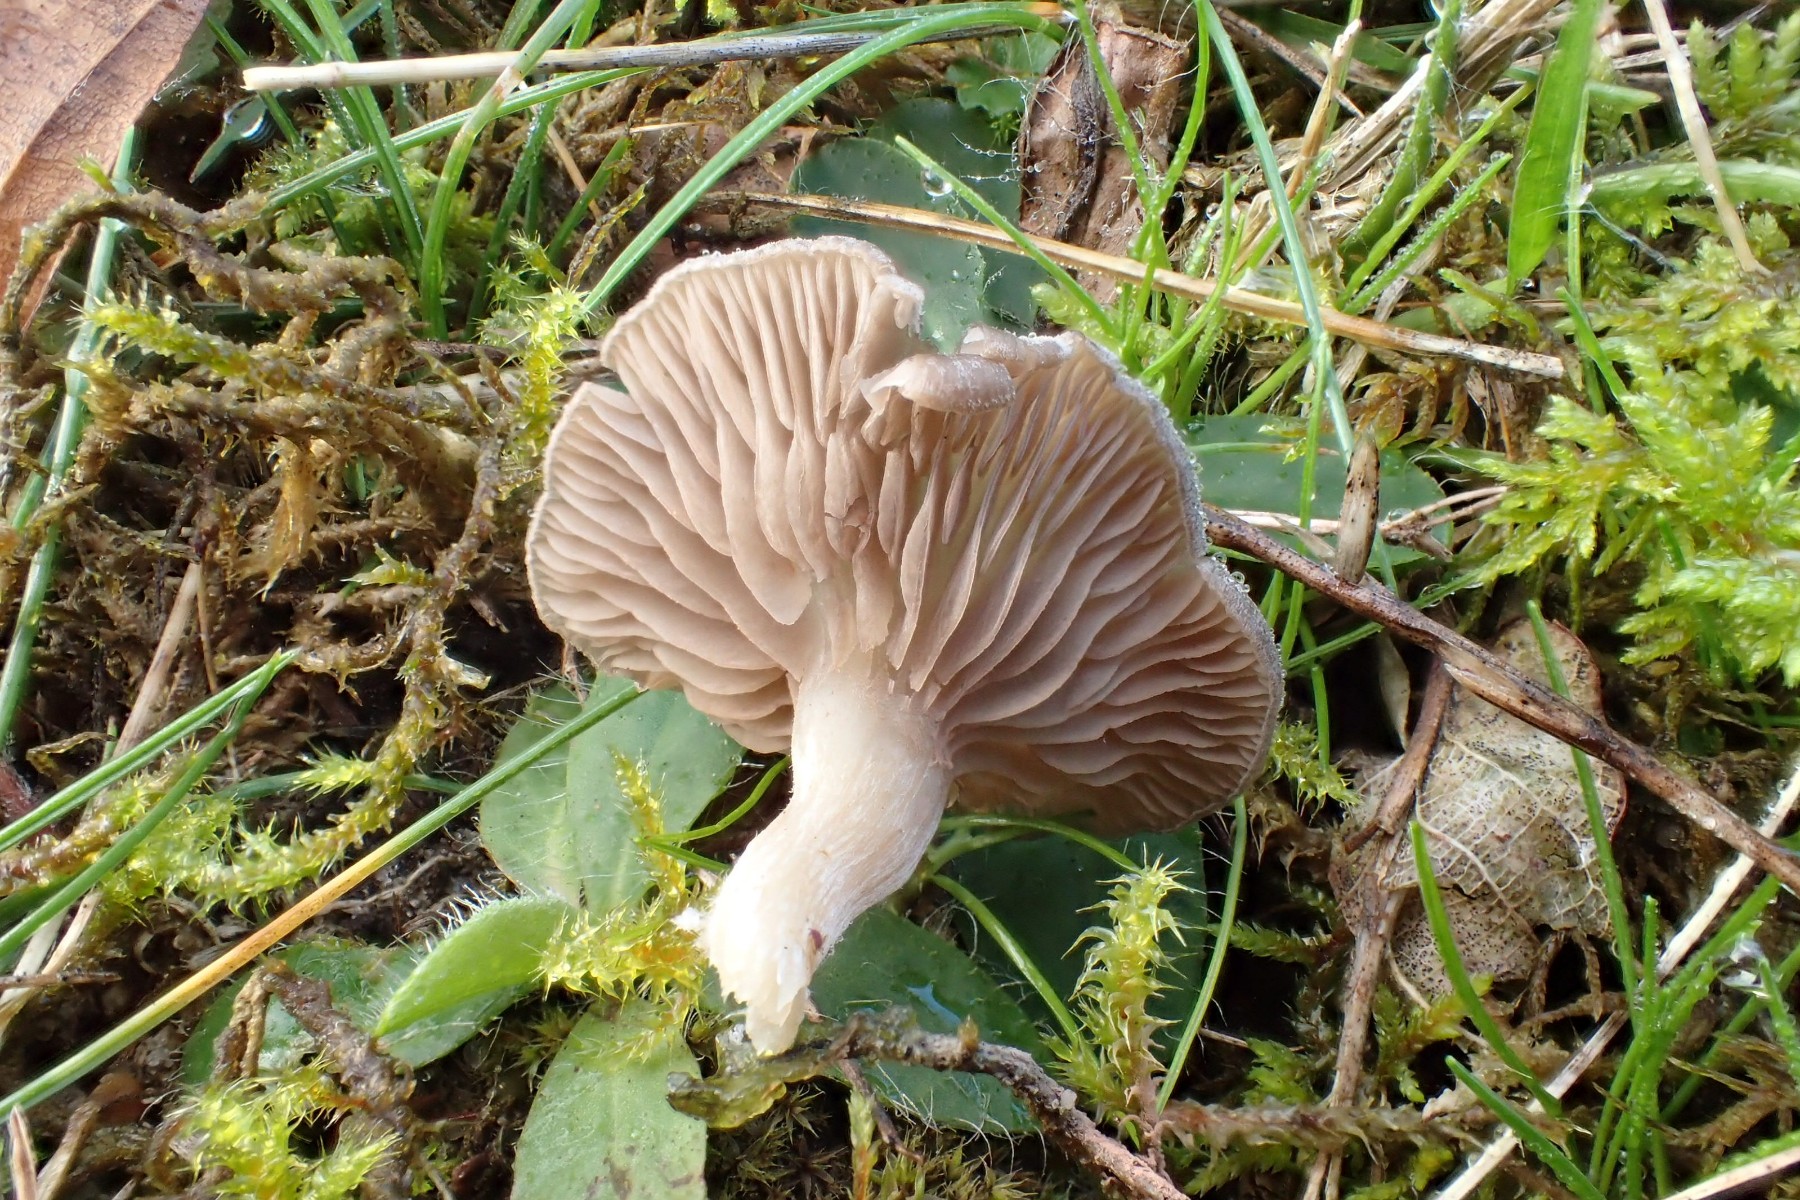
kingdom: Fungi
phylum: Basidiomycota
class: Agaricomycetes
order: Agaricales
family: Entolomataceae
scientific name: Entolomataceae
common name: rødbladfamilien
